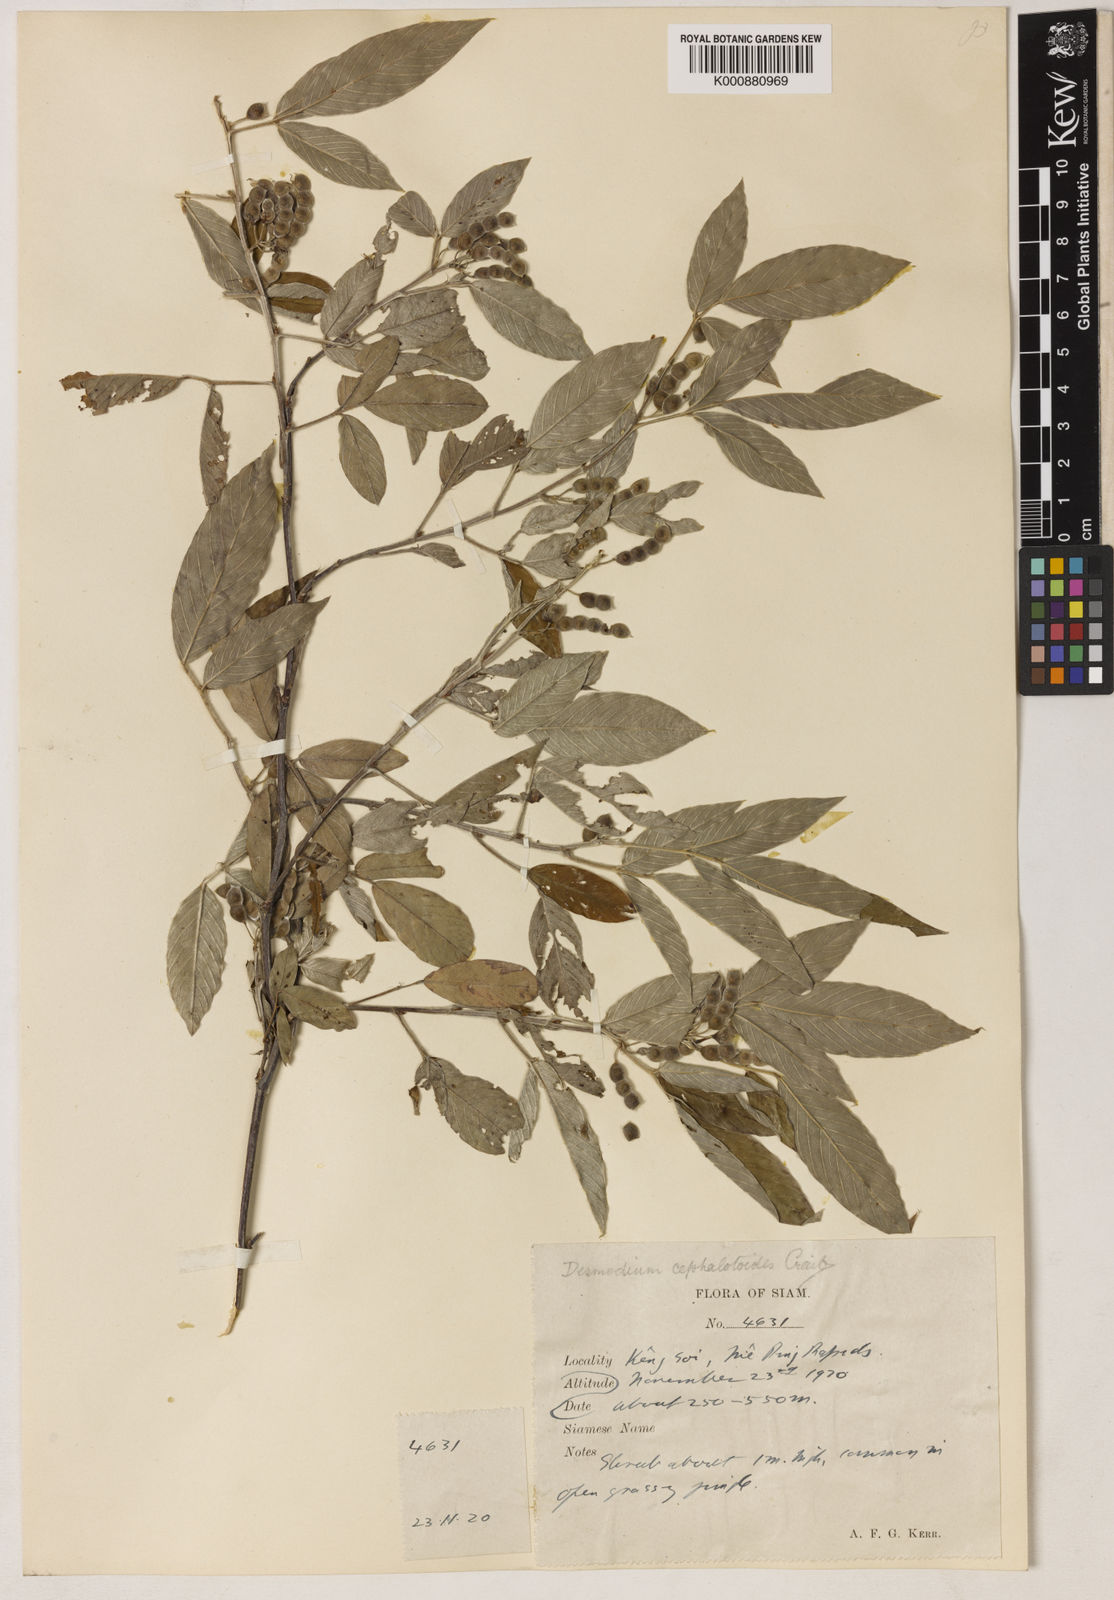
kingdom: Plantae
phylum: Tracheophyta
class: Magnoliopsida
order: Fabales
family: Fabaceae
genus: Dendrolobium
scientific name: Dendrolobium triangulare
